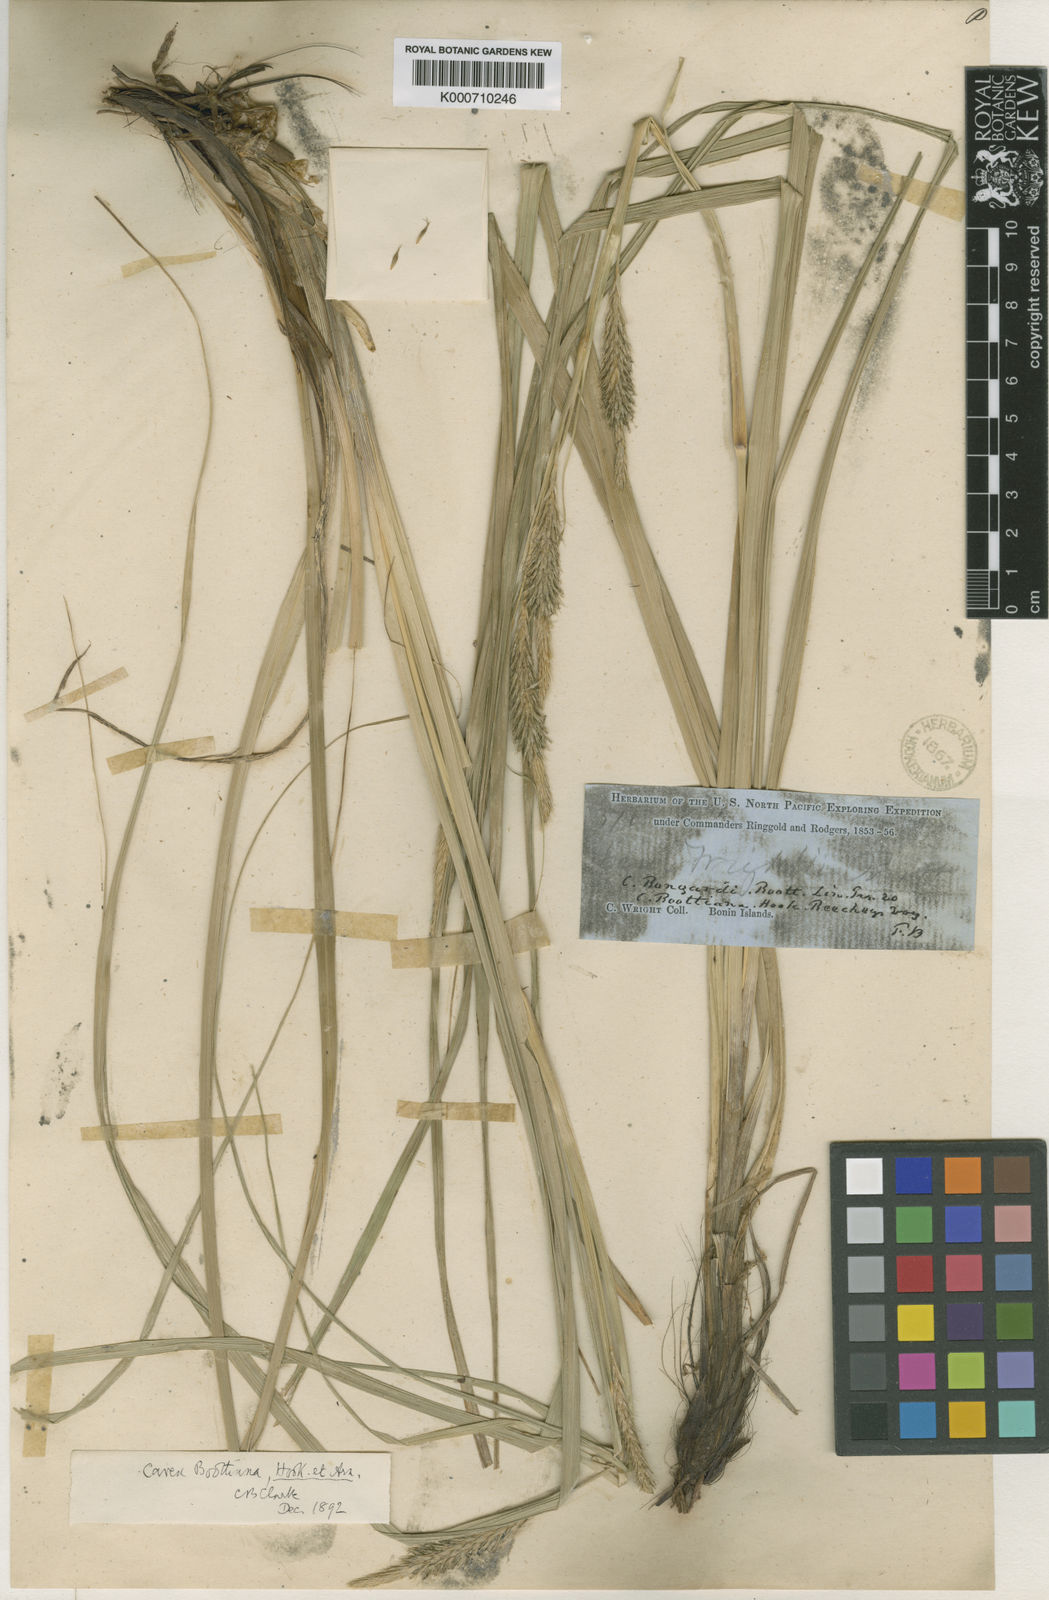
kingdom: Plantae
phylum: Tracheophyta
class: Liliopsida
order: Poales
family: Cyperaceae
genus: Carex
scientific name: Carex wahuensis
